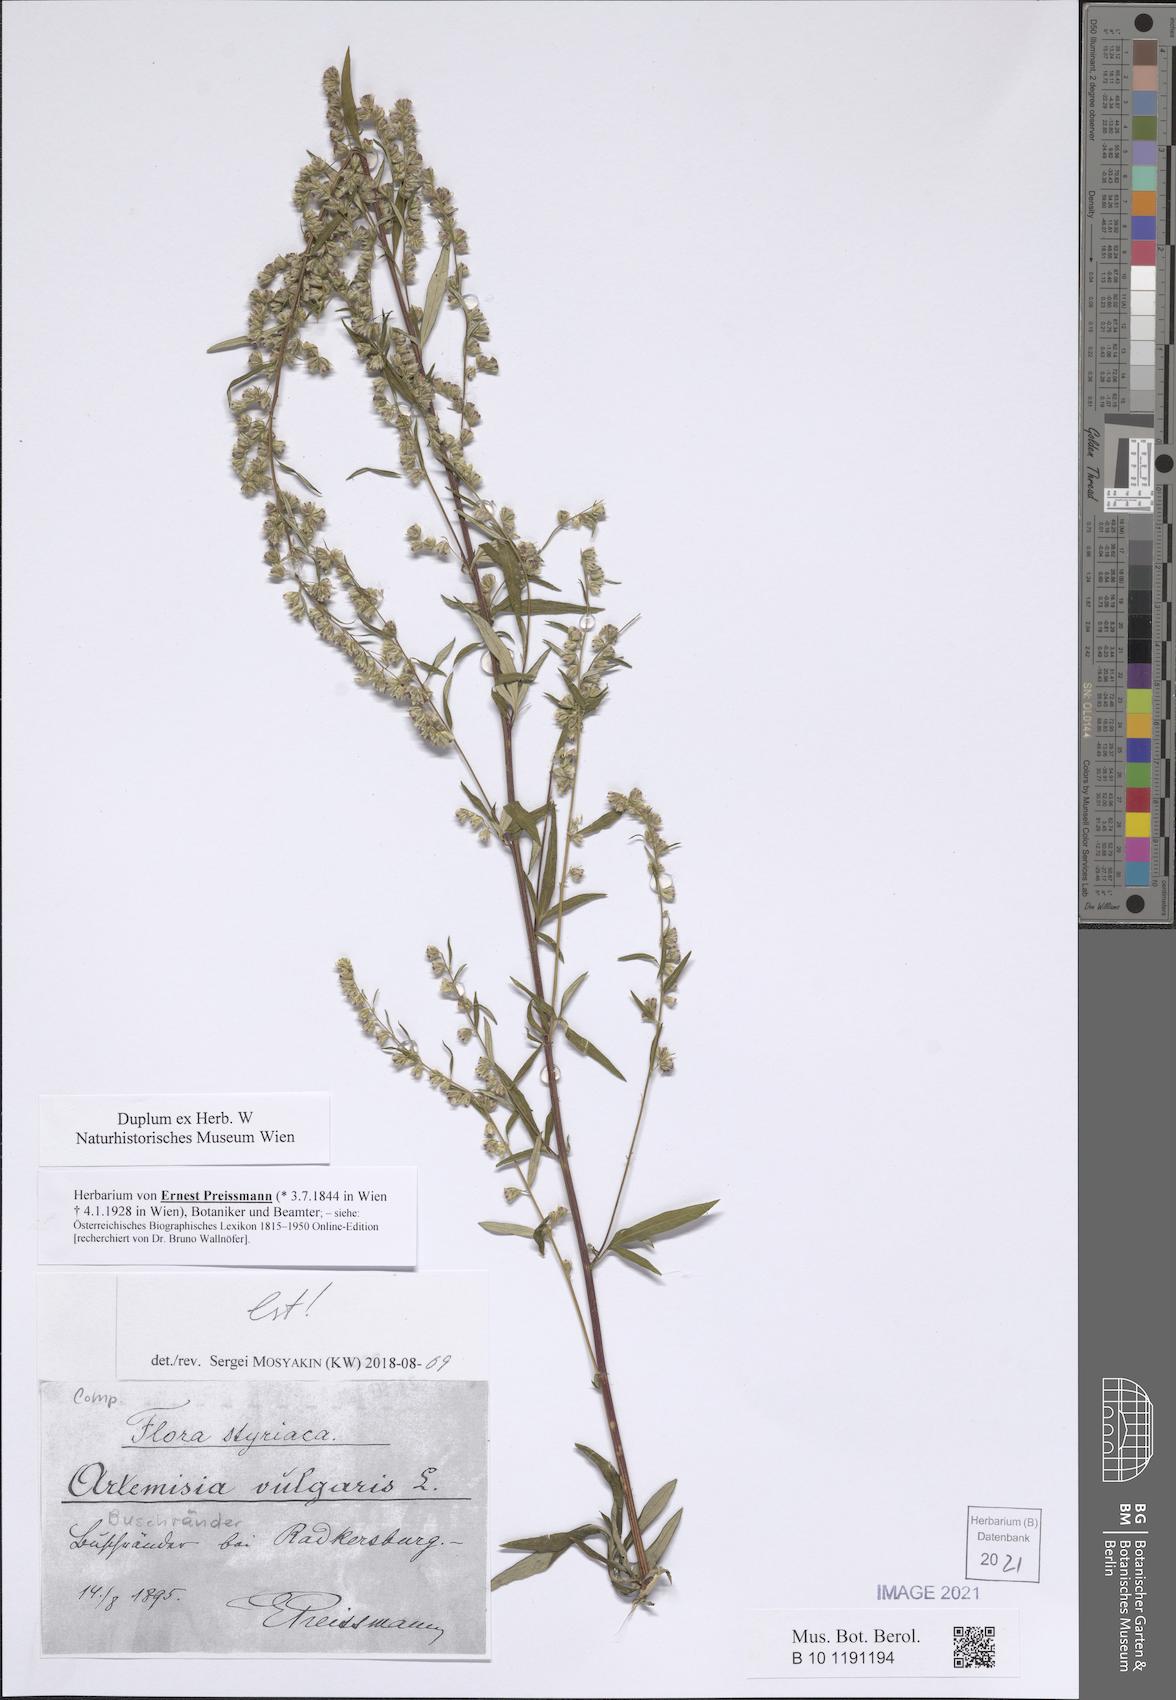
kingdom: Plantae
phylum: Tracheophyta
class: Magnoliopsida
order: Asterales
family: Asteraceae
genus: Artemisia
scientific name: Artemisia vulgaris
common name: Mugwort
